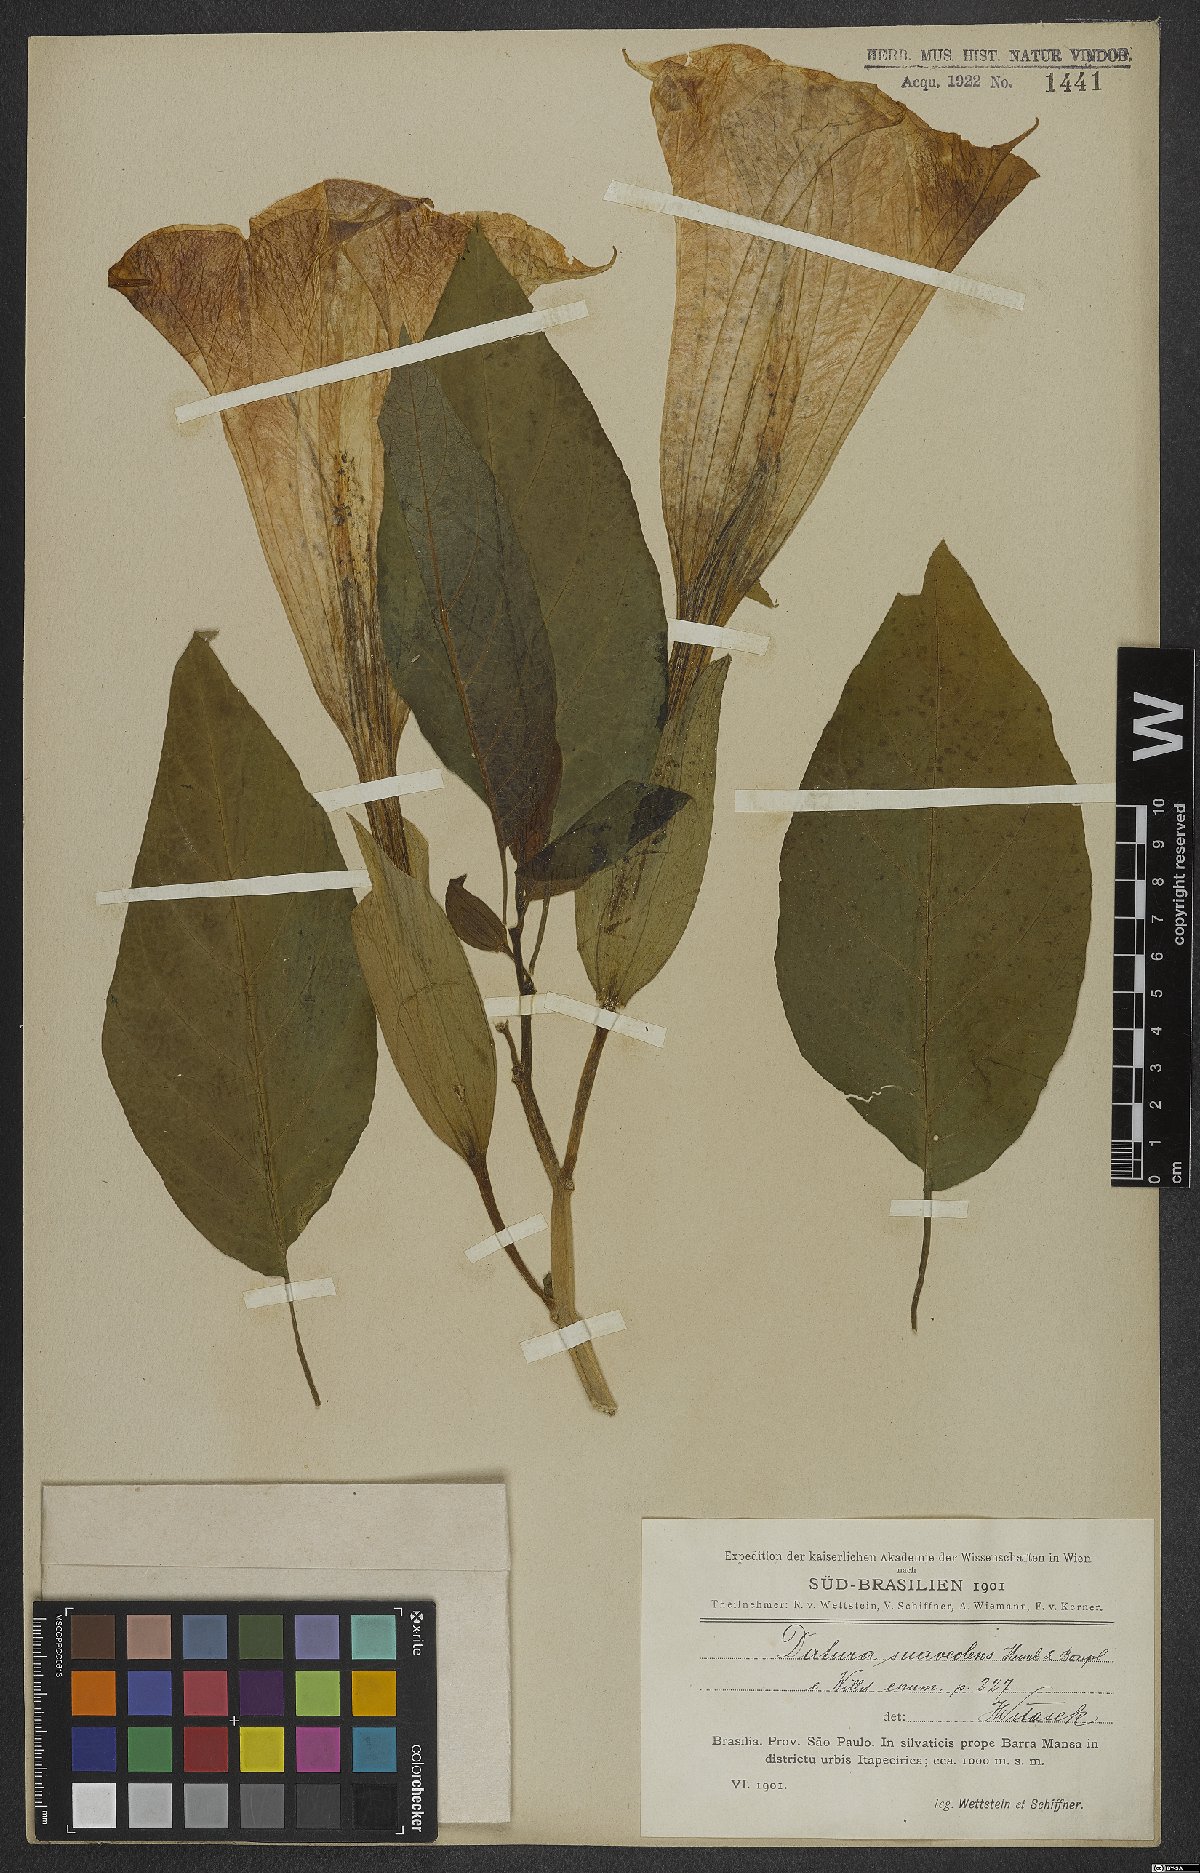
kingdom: Plantae
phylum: Tracheophyta
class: Magnoliopsida
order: Solanales
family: Solanaceae
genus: Brugmansia
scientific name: Brugmansia suaveolens
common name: Angel's tears
